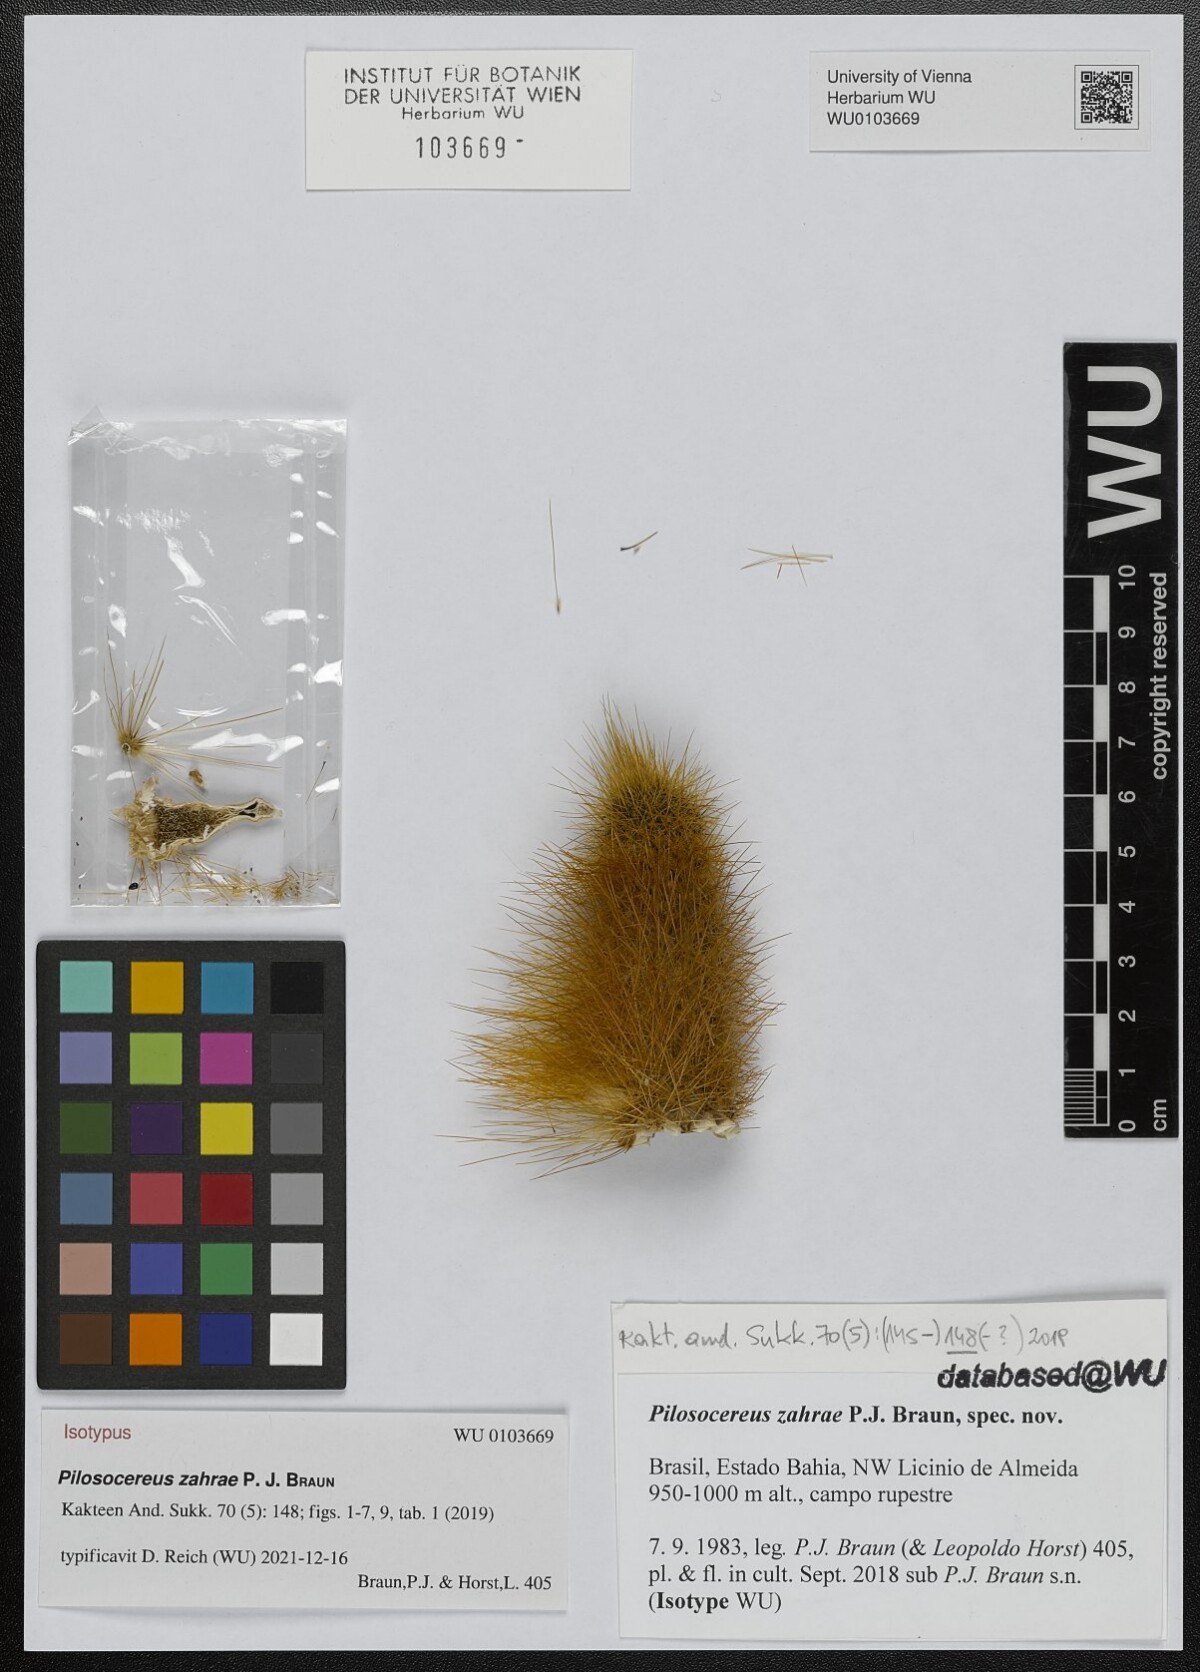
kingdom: Plantae
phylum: Tracheophyta
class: Magnoliopsida
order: Caryophyllales
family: Cactaceae
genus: Pilosocereus
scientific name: Pilosocereus zahrae
